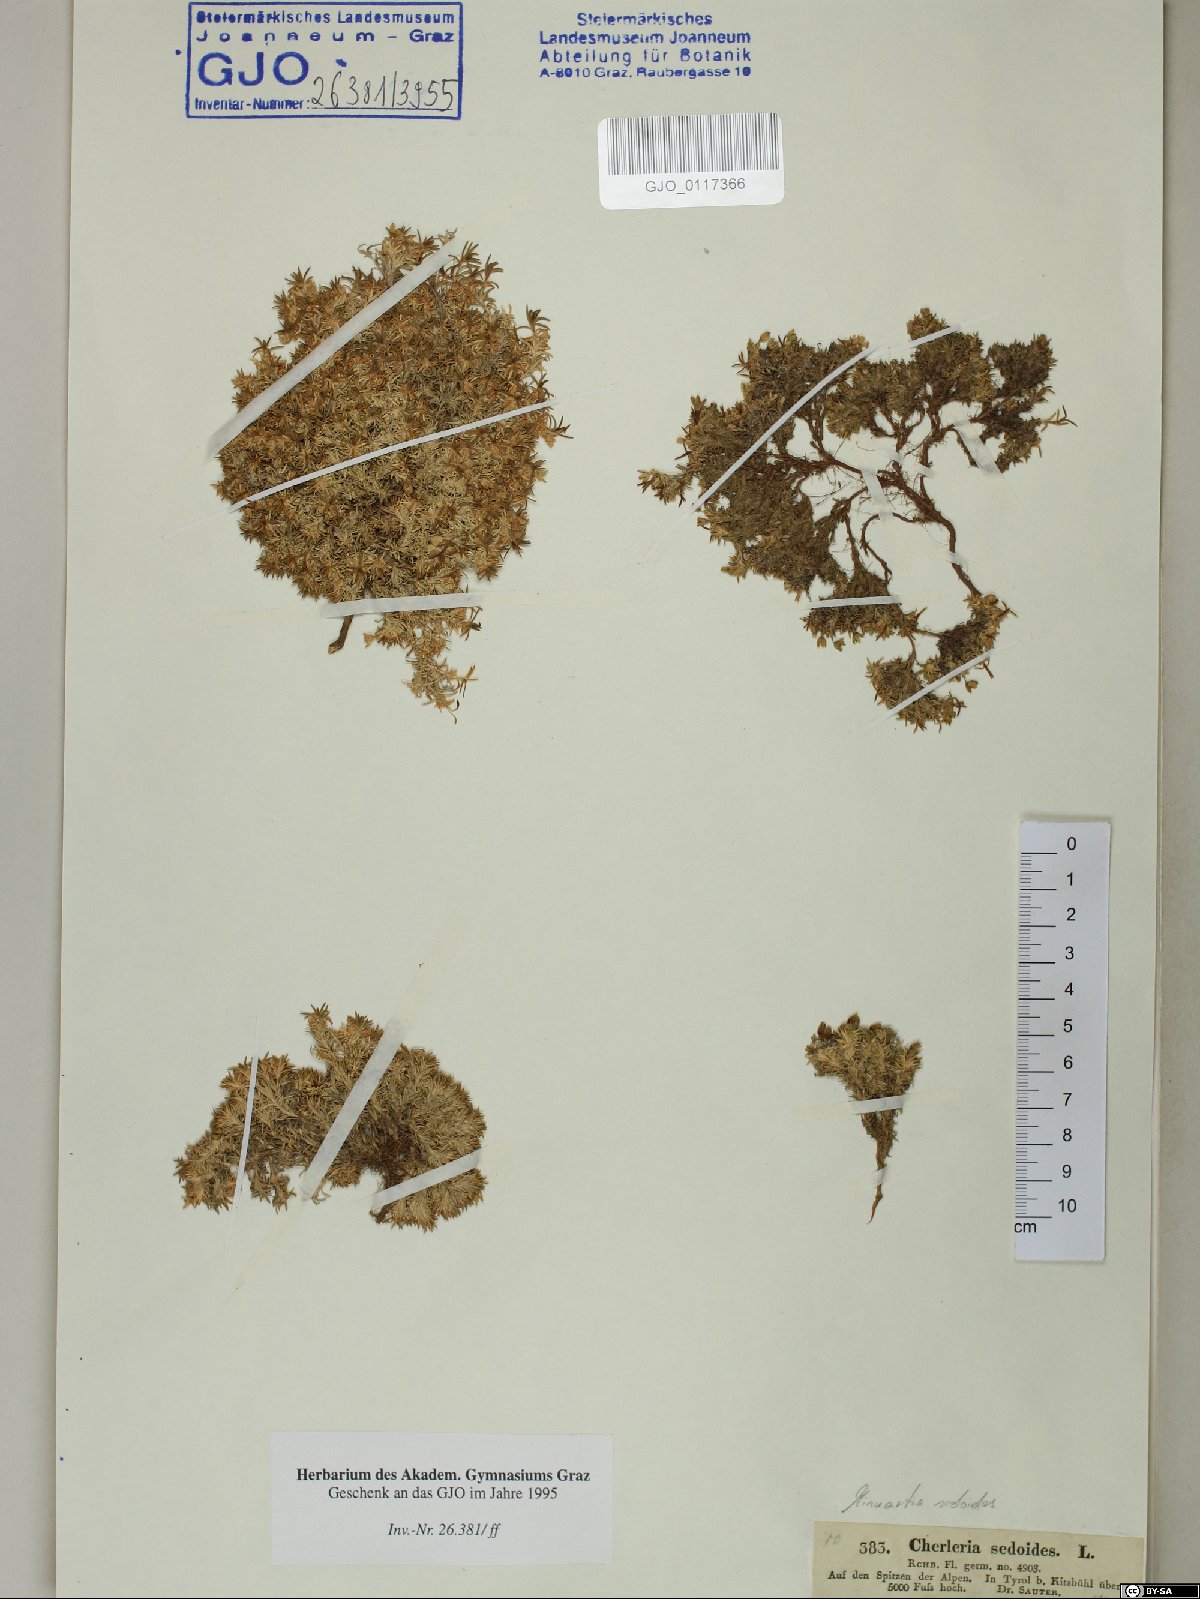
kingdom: Plantae
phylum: Tracheophyta
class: Magnoliopsida
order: Caryophyllales
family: Caryophyllaceae
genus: Cherleria
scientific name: Cherleria sedoides
